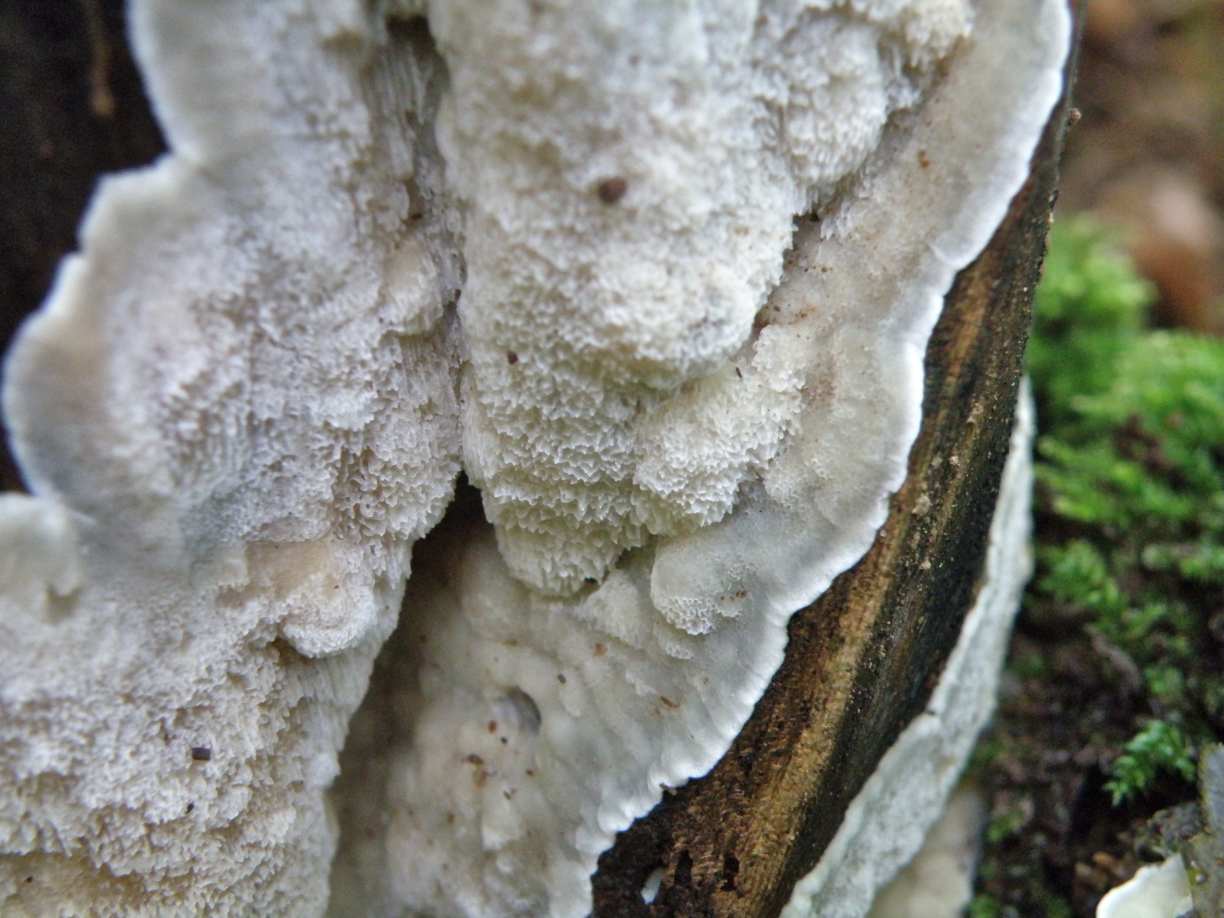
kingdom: Fungi
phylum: Basidiomycota
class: Agaricomycetes
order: Polyporales
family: Meruliaceae
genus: Physisporinus
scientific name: Physisporinus vitreus
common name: mastesvamp
